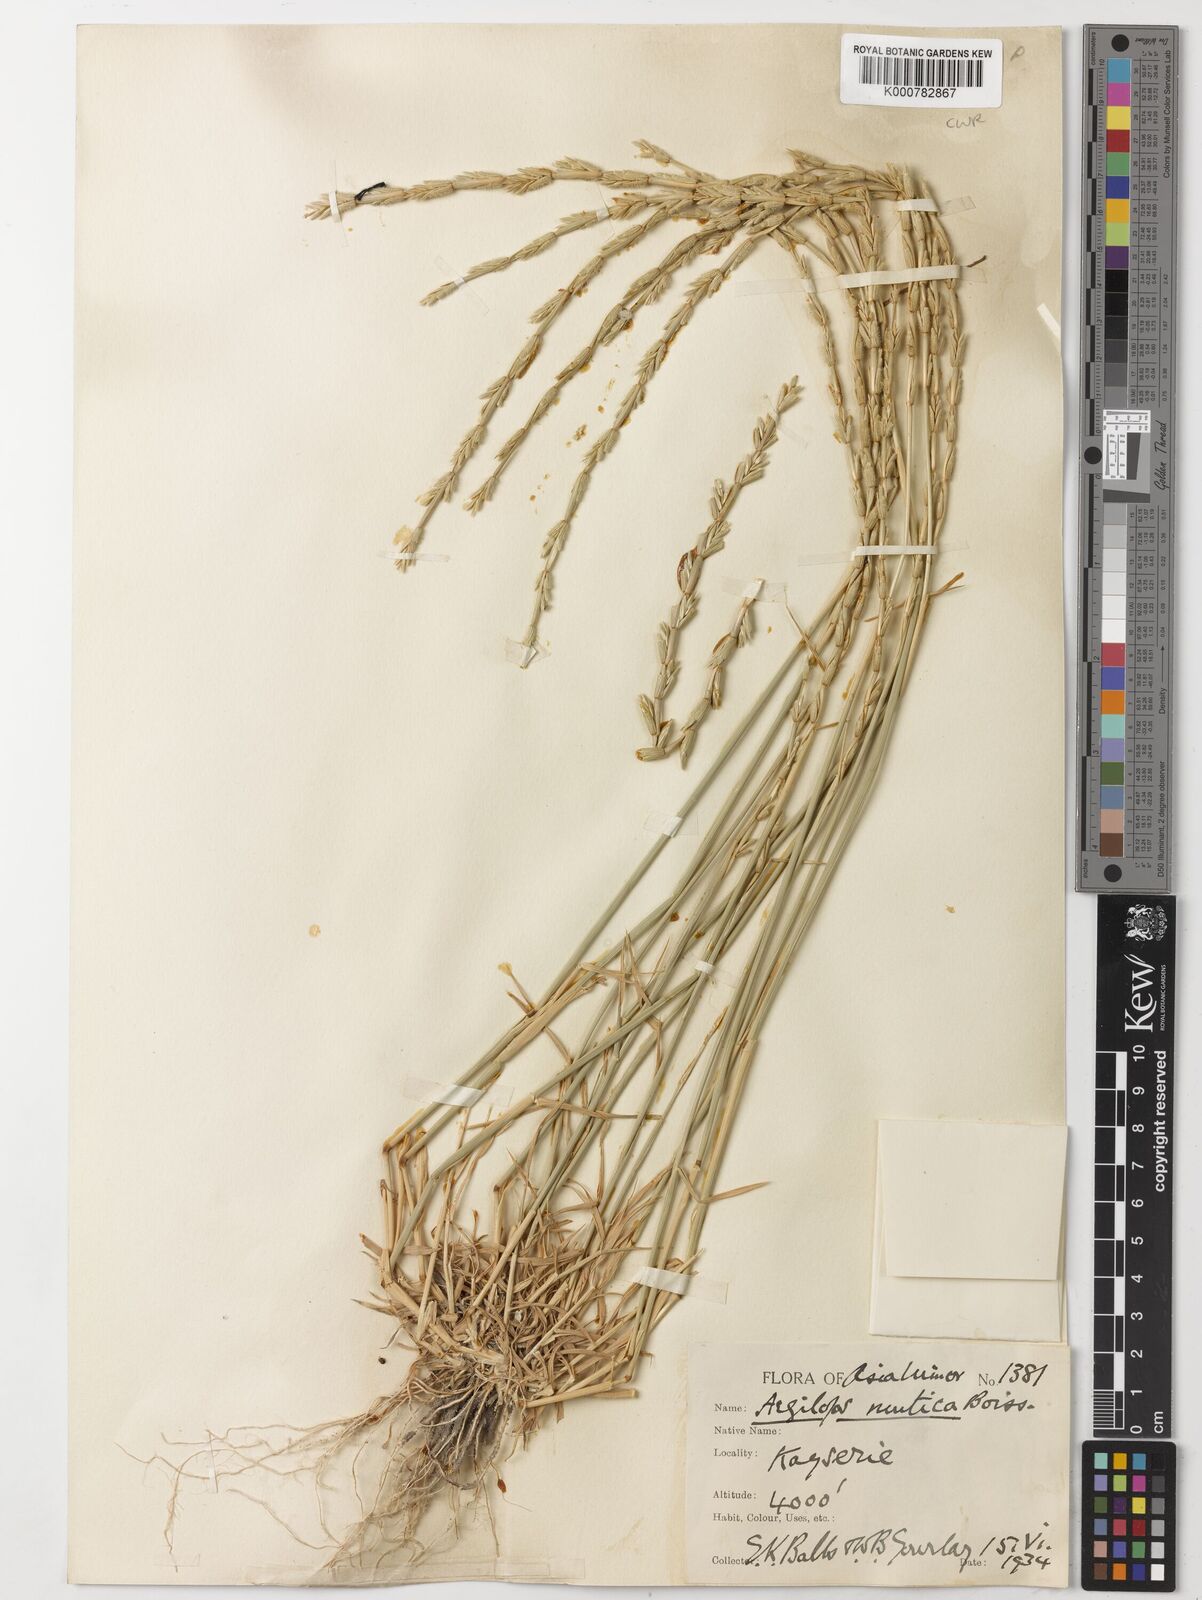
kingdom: Plantae
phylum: Tracheophyta
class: Liliopsida
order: Poales
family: Poaceae
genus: Aegilops
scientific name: Aegilops mutica
